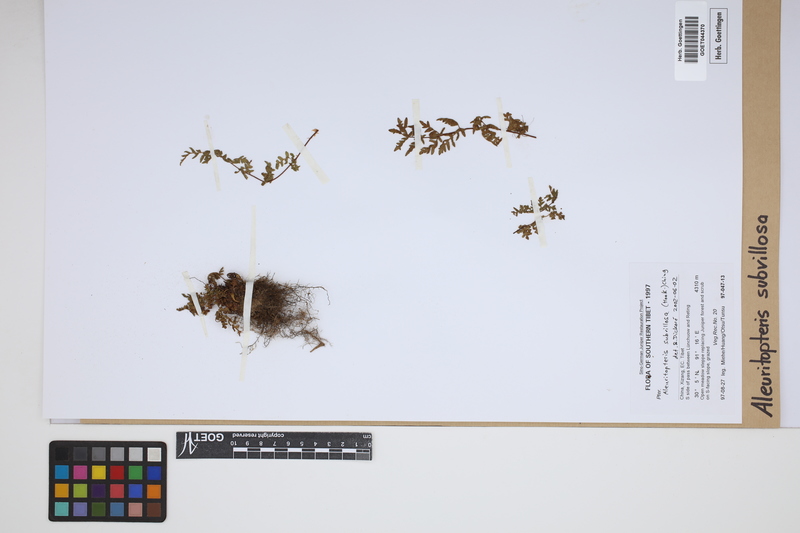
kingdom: Plantae
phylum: Tracheophyta
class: Polypodiopsida
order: Polypodiales
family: Pteridaceae
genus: Oeosporangium
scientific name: Oeosporangium subvillosum
